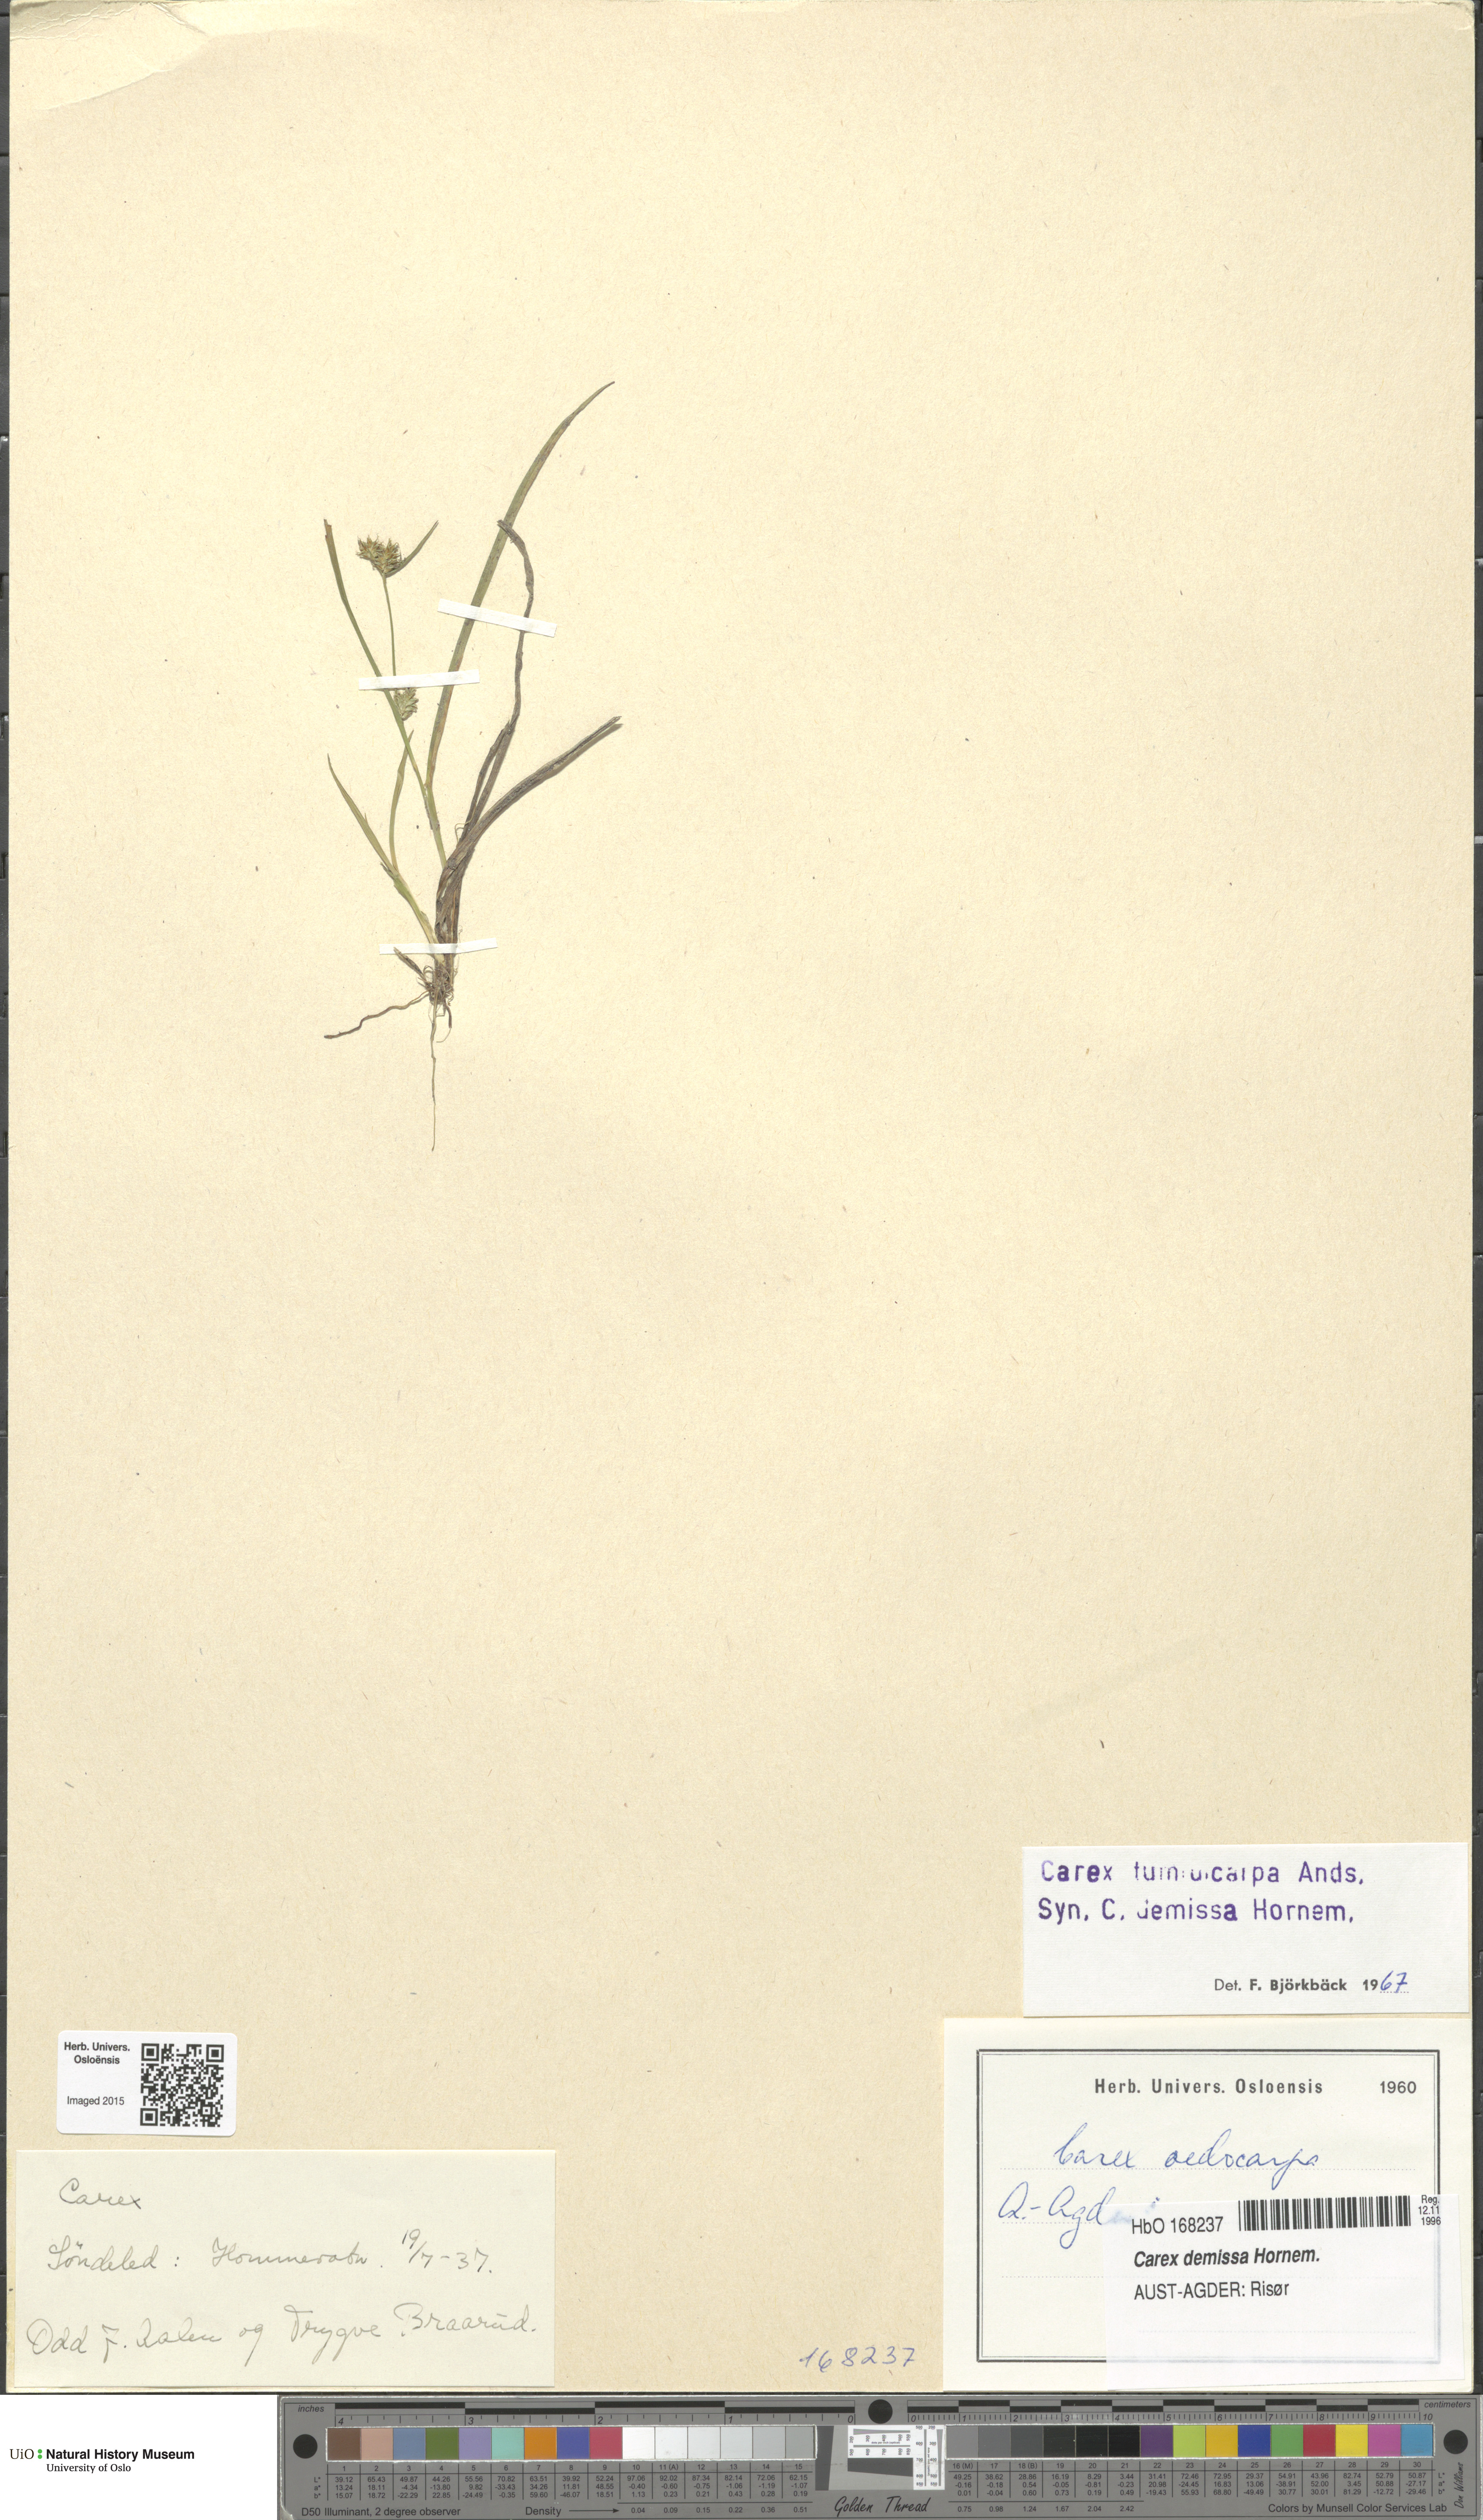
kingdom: Plantae
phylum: Tracheophyta
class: Liliopsida
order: Poales
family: Cyperaceae
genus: Carex
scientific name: Carex demissa
